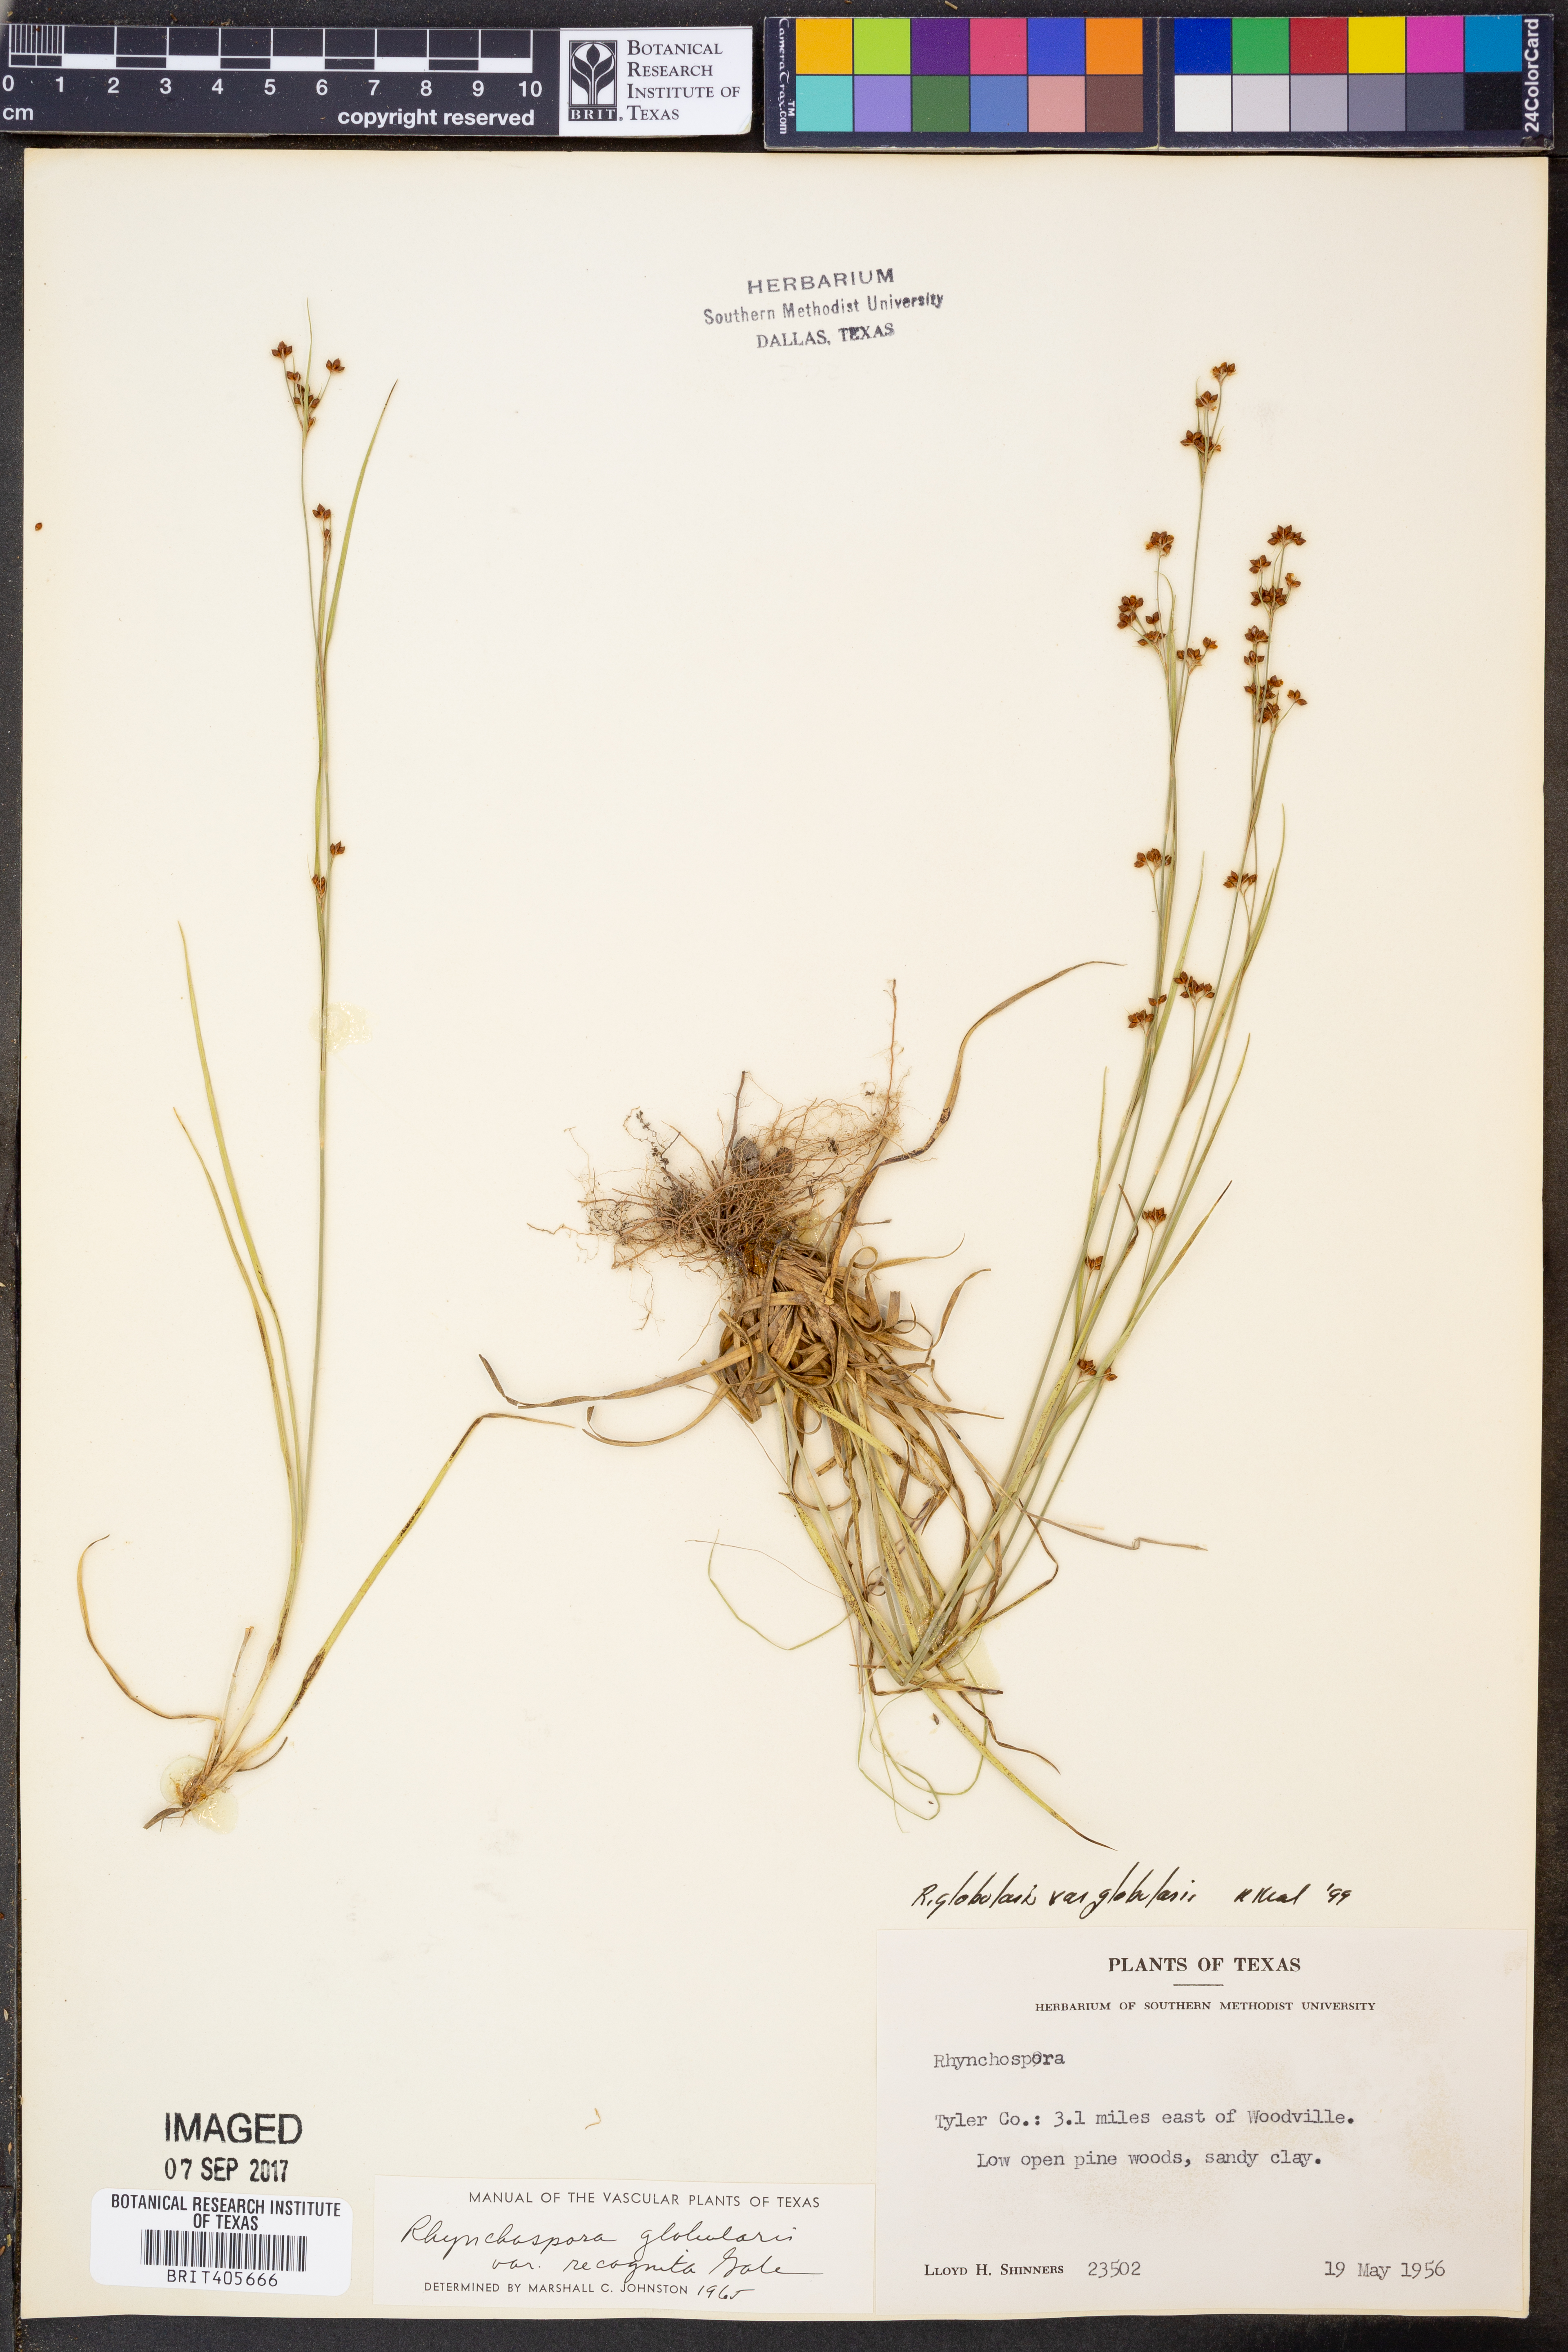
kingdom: Plantae
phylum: Tracheophyta
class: Liliopsida
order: Poales
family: Cyperaceae
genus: Rhynchospora
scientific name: Rhynchospora globularis
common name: Globe beaksedge
